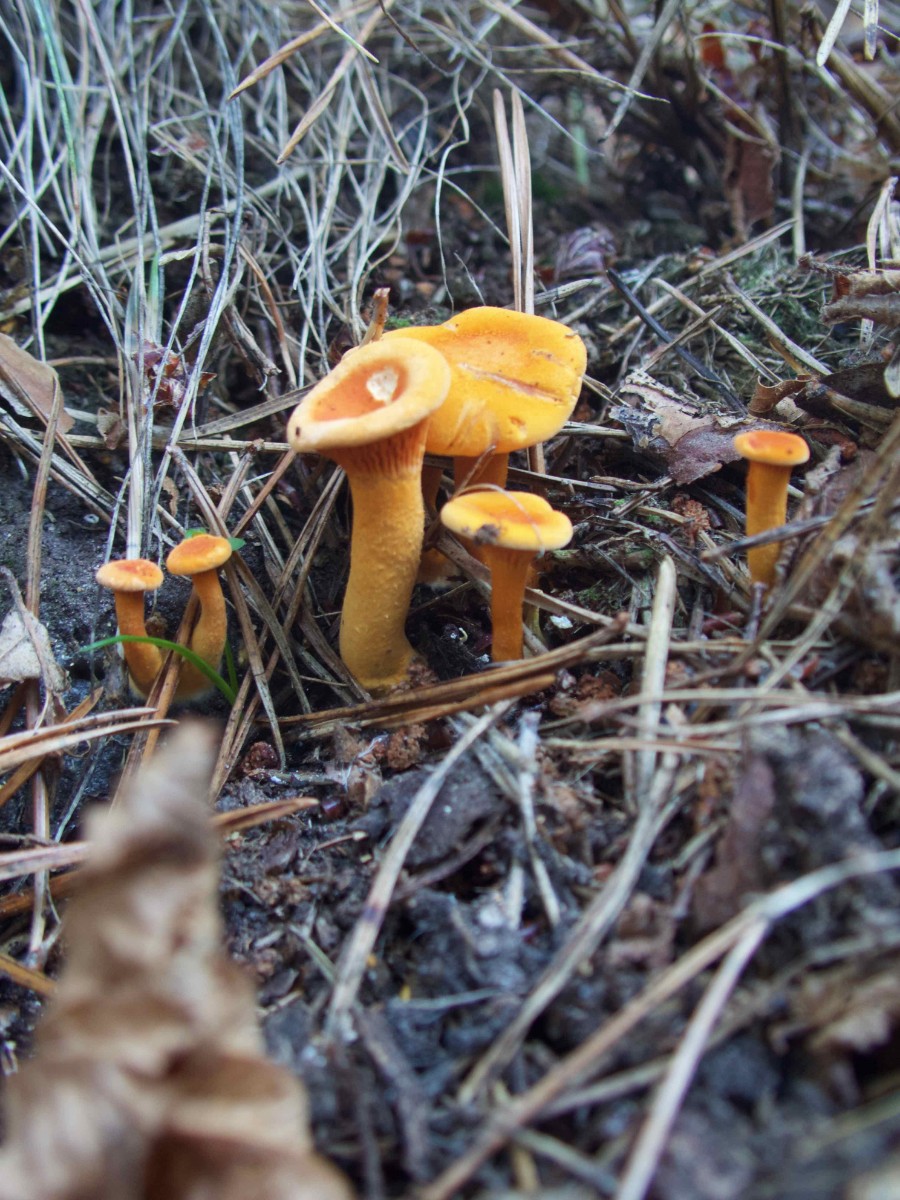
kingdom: Fungi
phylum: Basidiomycota
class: Agaricomycetes
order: Boletales
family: Hygrophoropsidaceae
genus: Hygrophoropsis
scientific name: Hygrophoropsis aurantiaca
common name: almindelig orangekantarel
